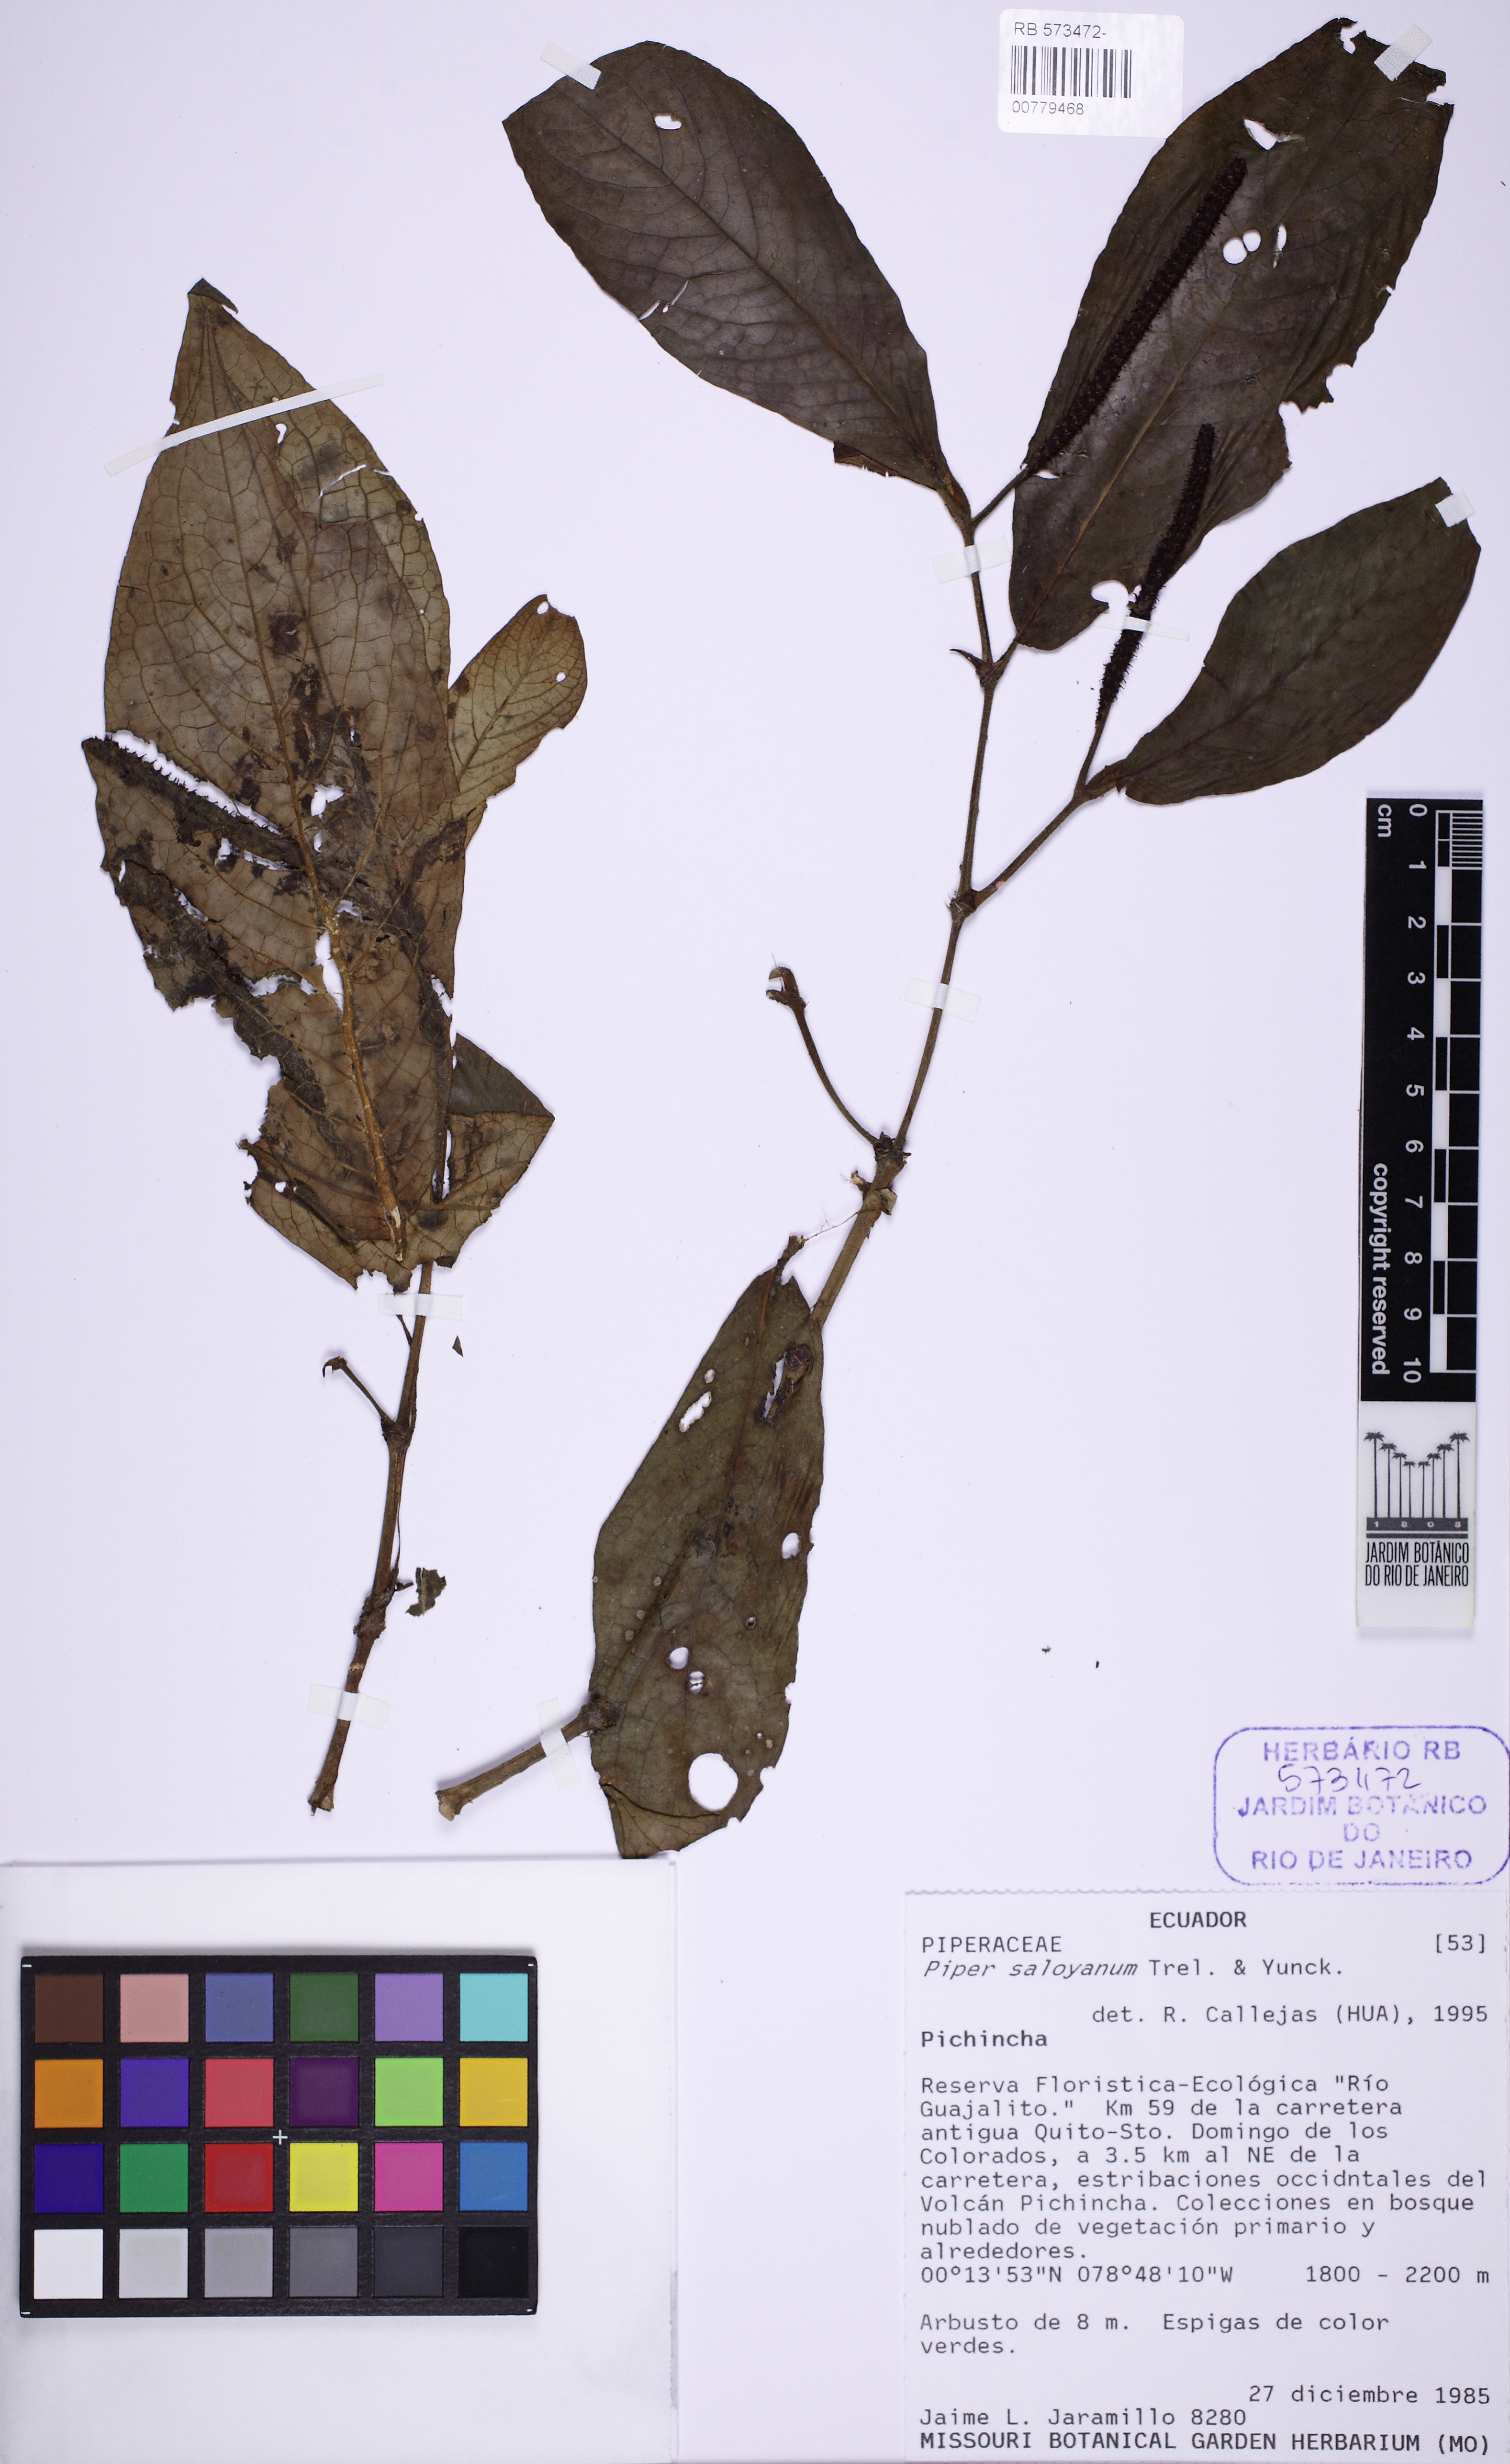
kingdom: Plantae
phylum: Tracheophyta
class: Magnoliopsida
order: Piperales
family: Piperaceae
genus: Piper
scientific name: Piper saloyanum
